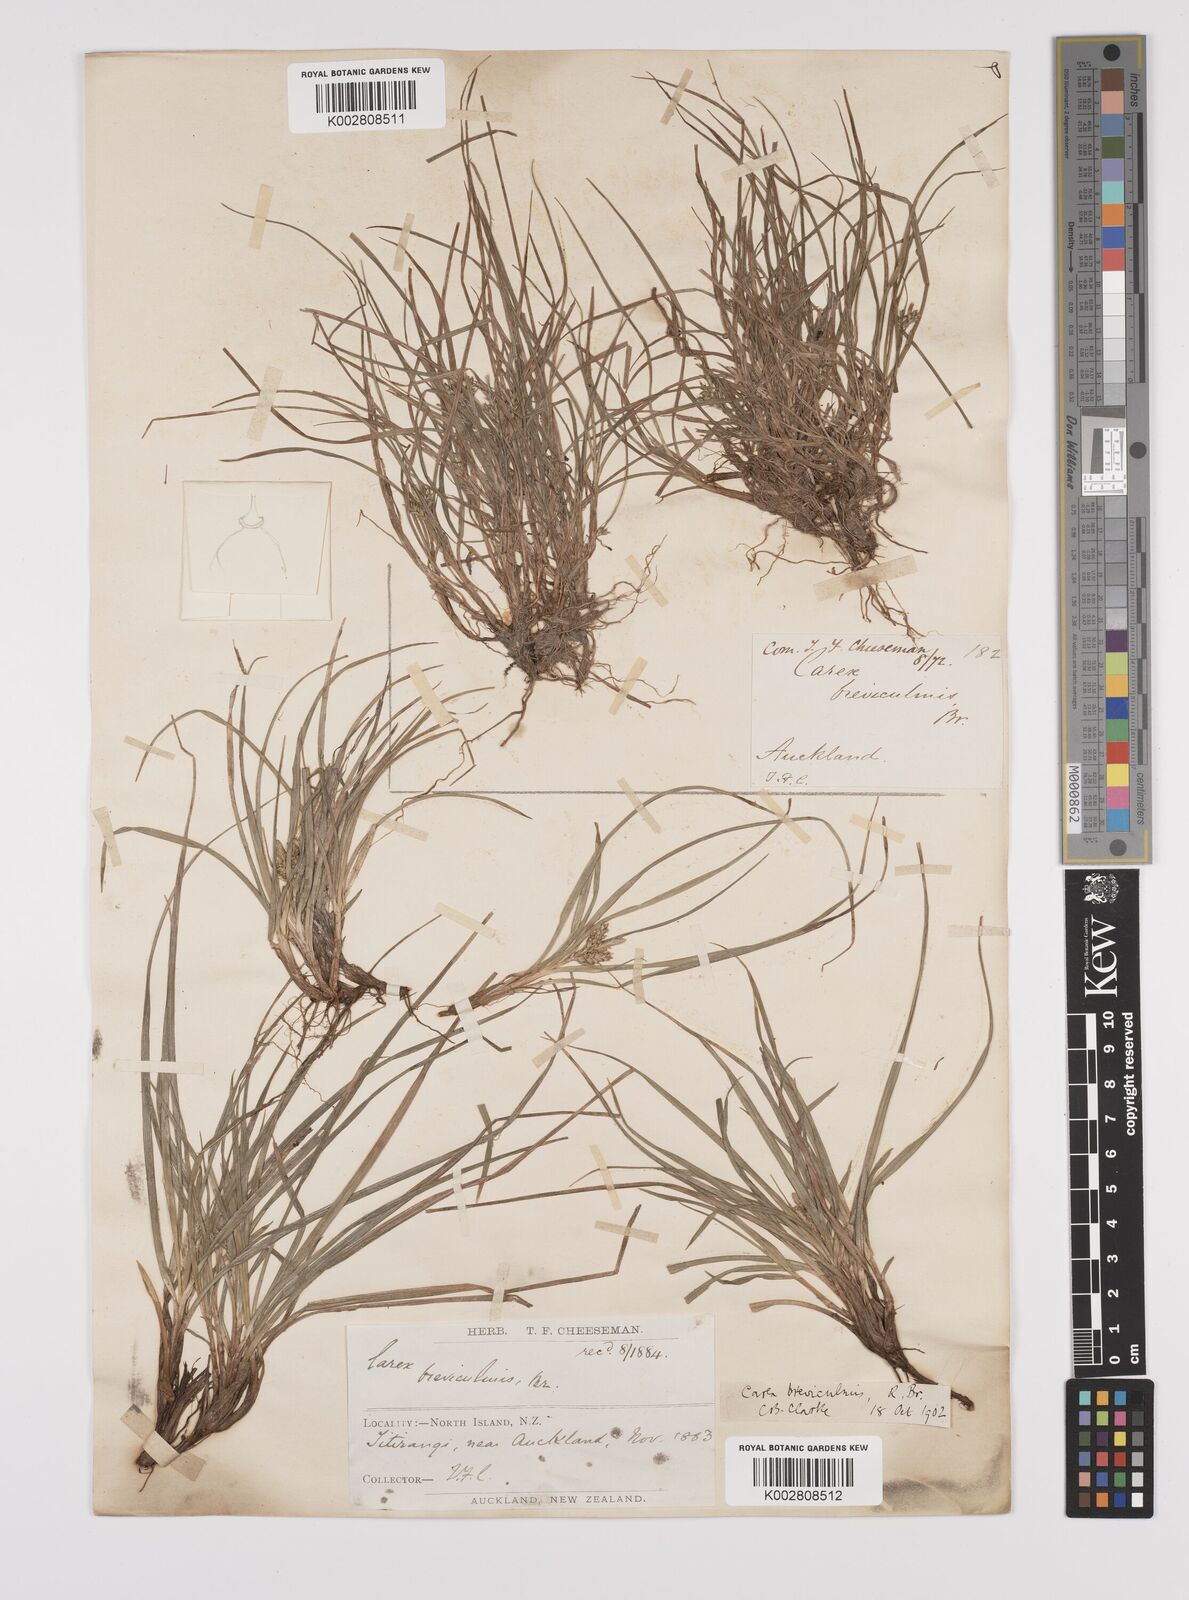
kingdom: Plantae
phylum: Tracheophyta
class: Liliopsida
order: Poales
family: Cyperaceae
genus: Carex
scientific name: Carex breviculmis
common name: Asian shortstem sedge
